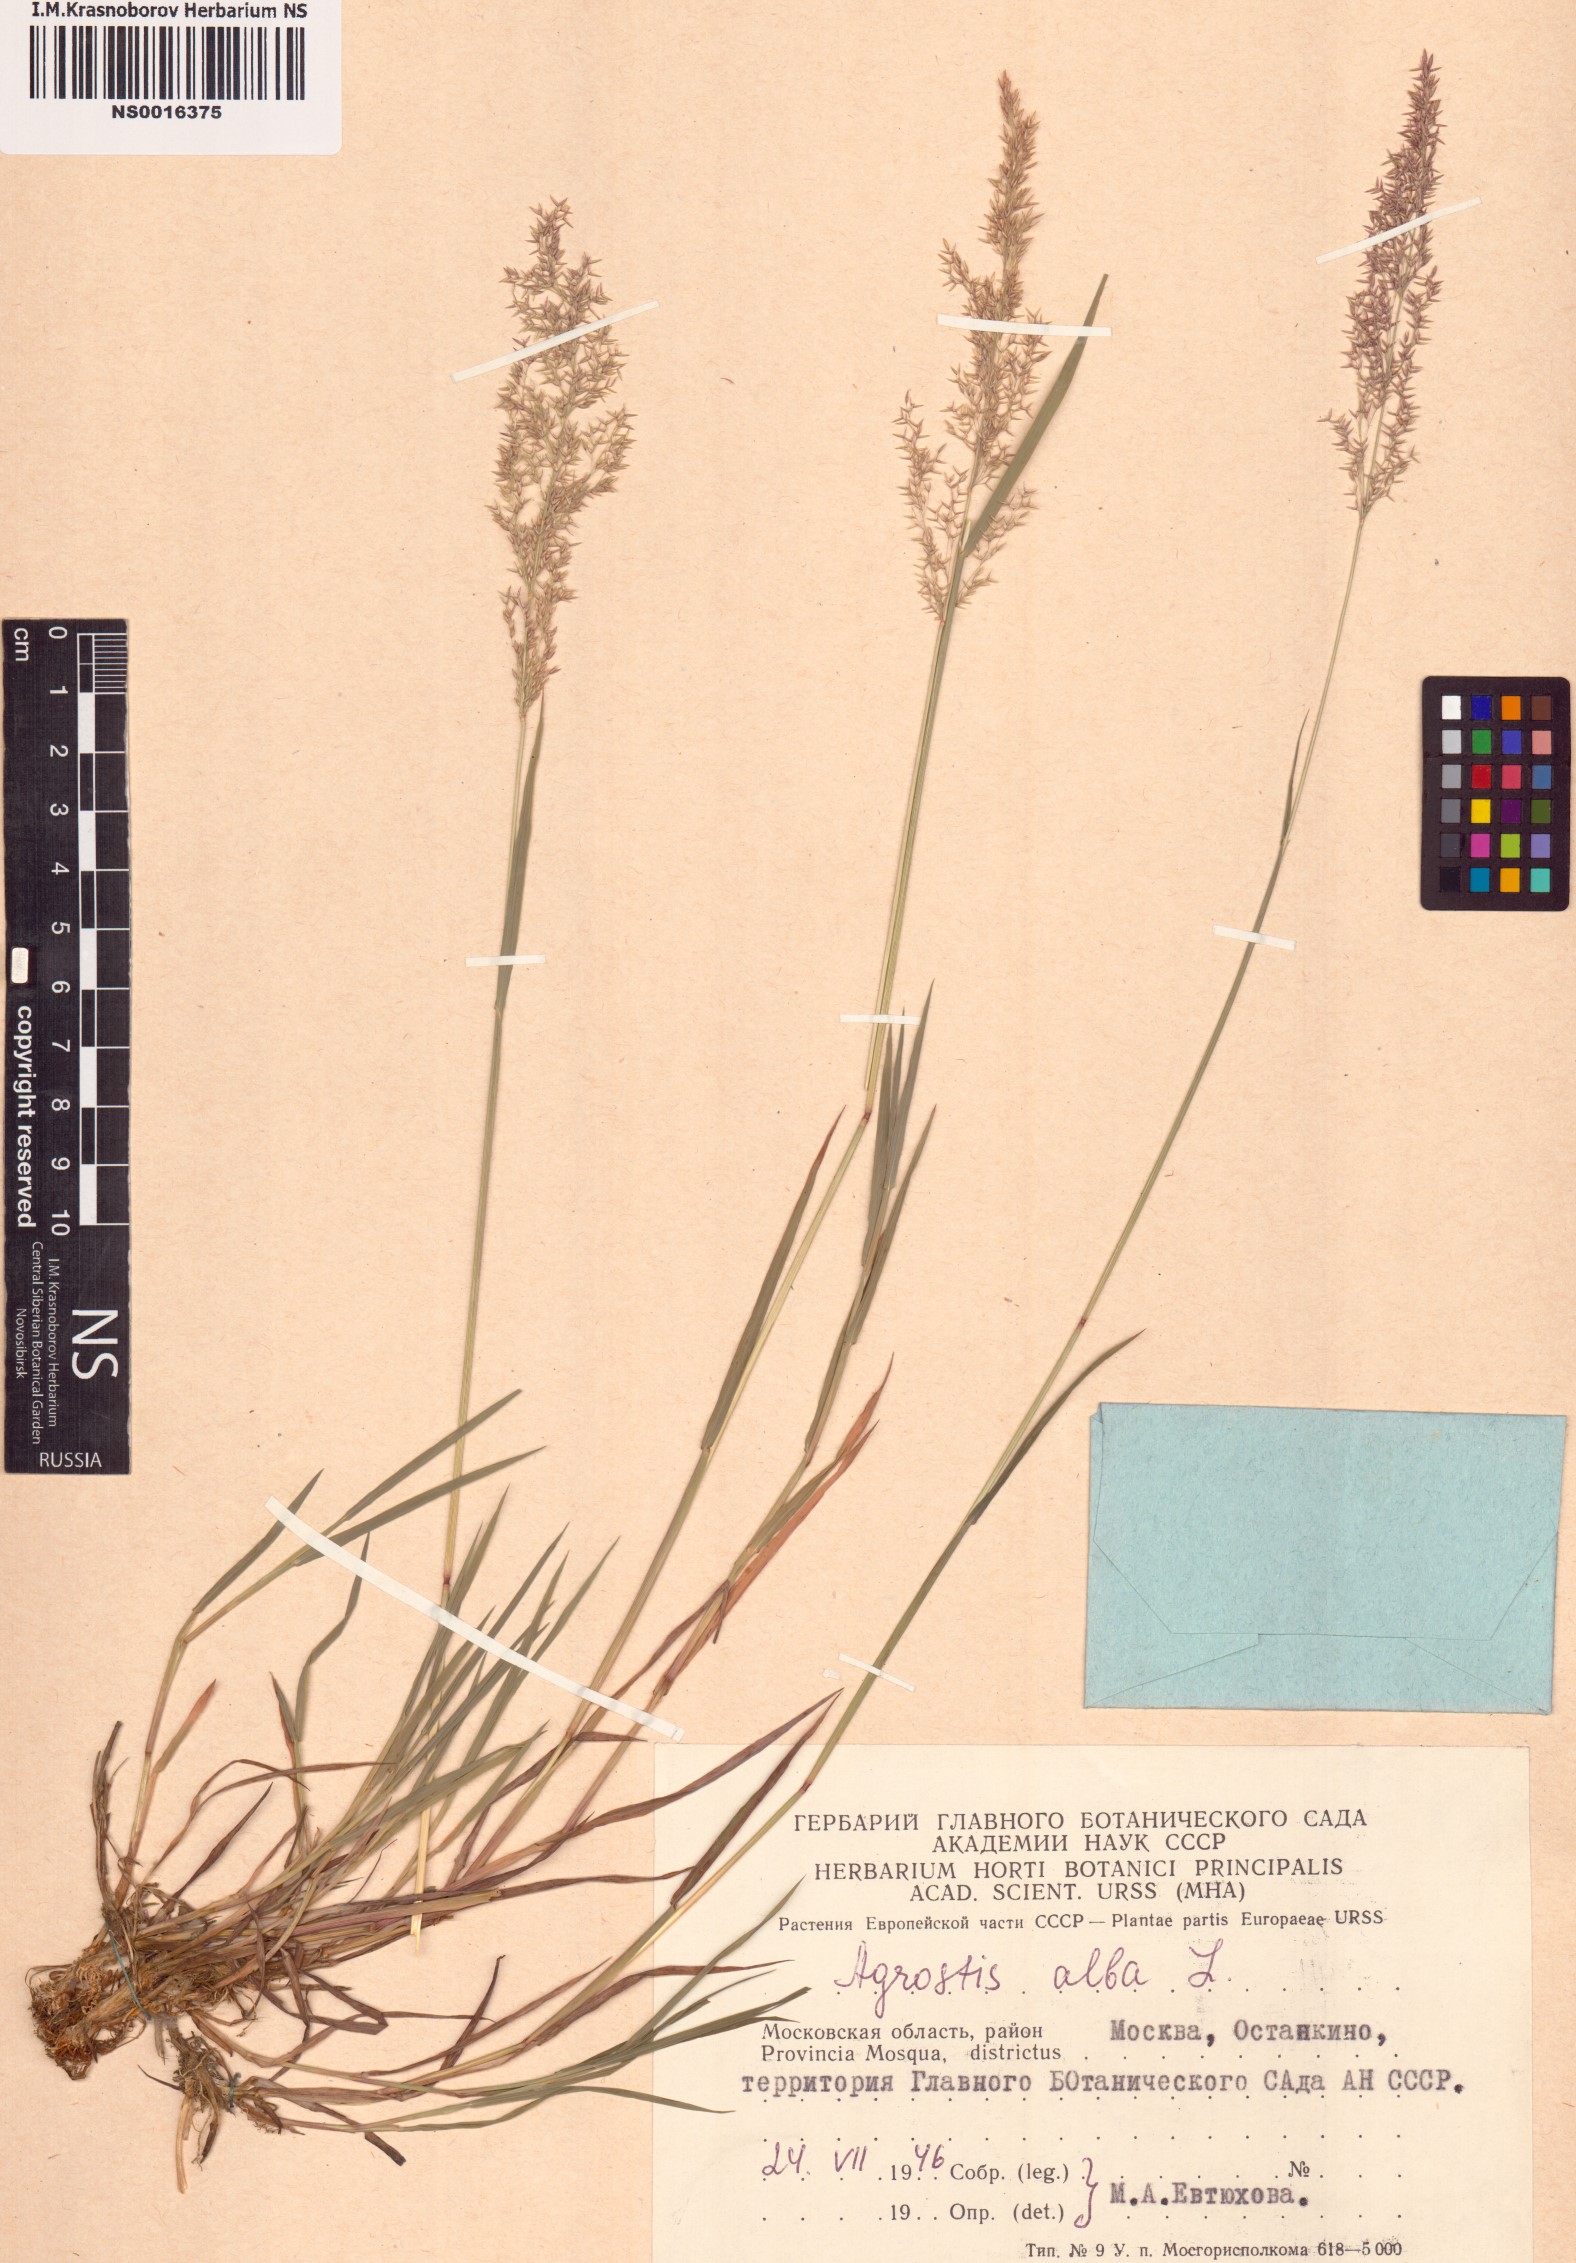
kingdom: Plantae
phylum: Tracheophyta
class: Liliopsida
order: Poales
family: Poaceae
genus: Poa
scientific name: Poa nemoralis
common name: Wood bluegrass
